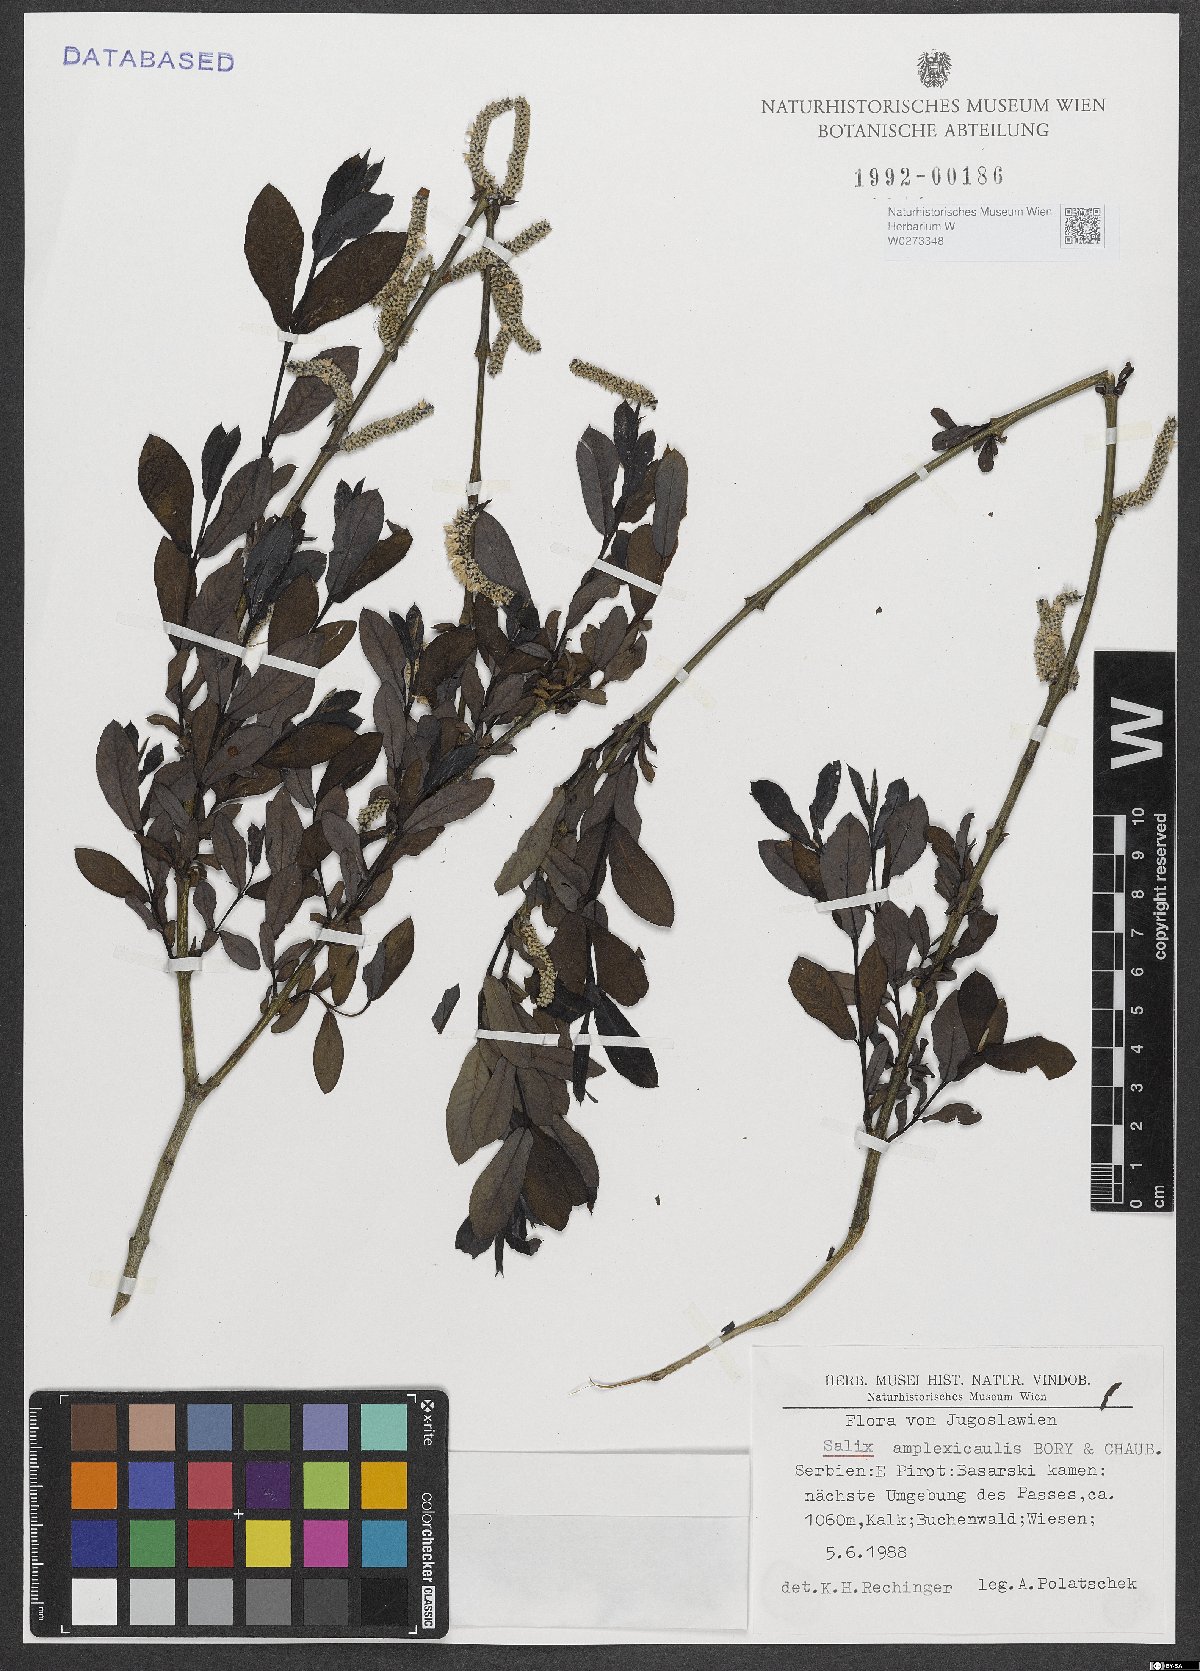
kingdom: Plantae
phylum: Tracheophyta
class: Magnoliopsida
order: Malpighiales
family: Salicaceae
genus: Salix
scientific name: Salix amplexicaulis
